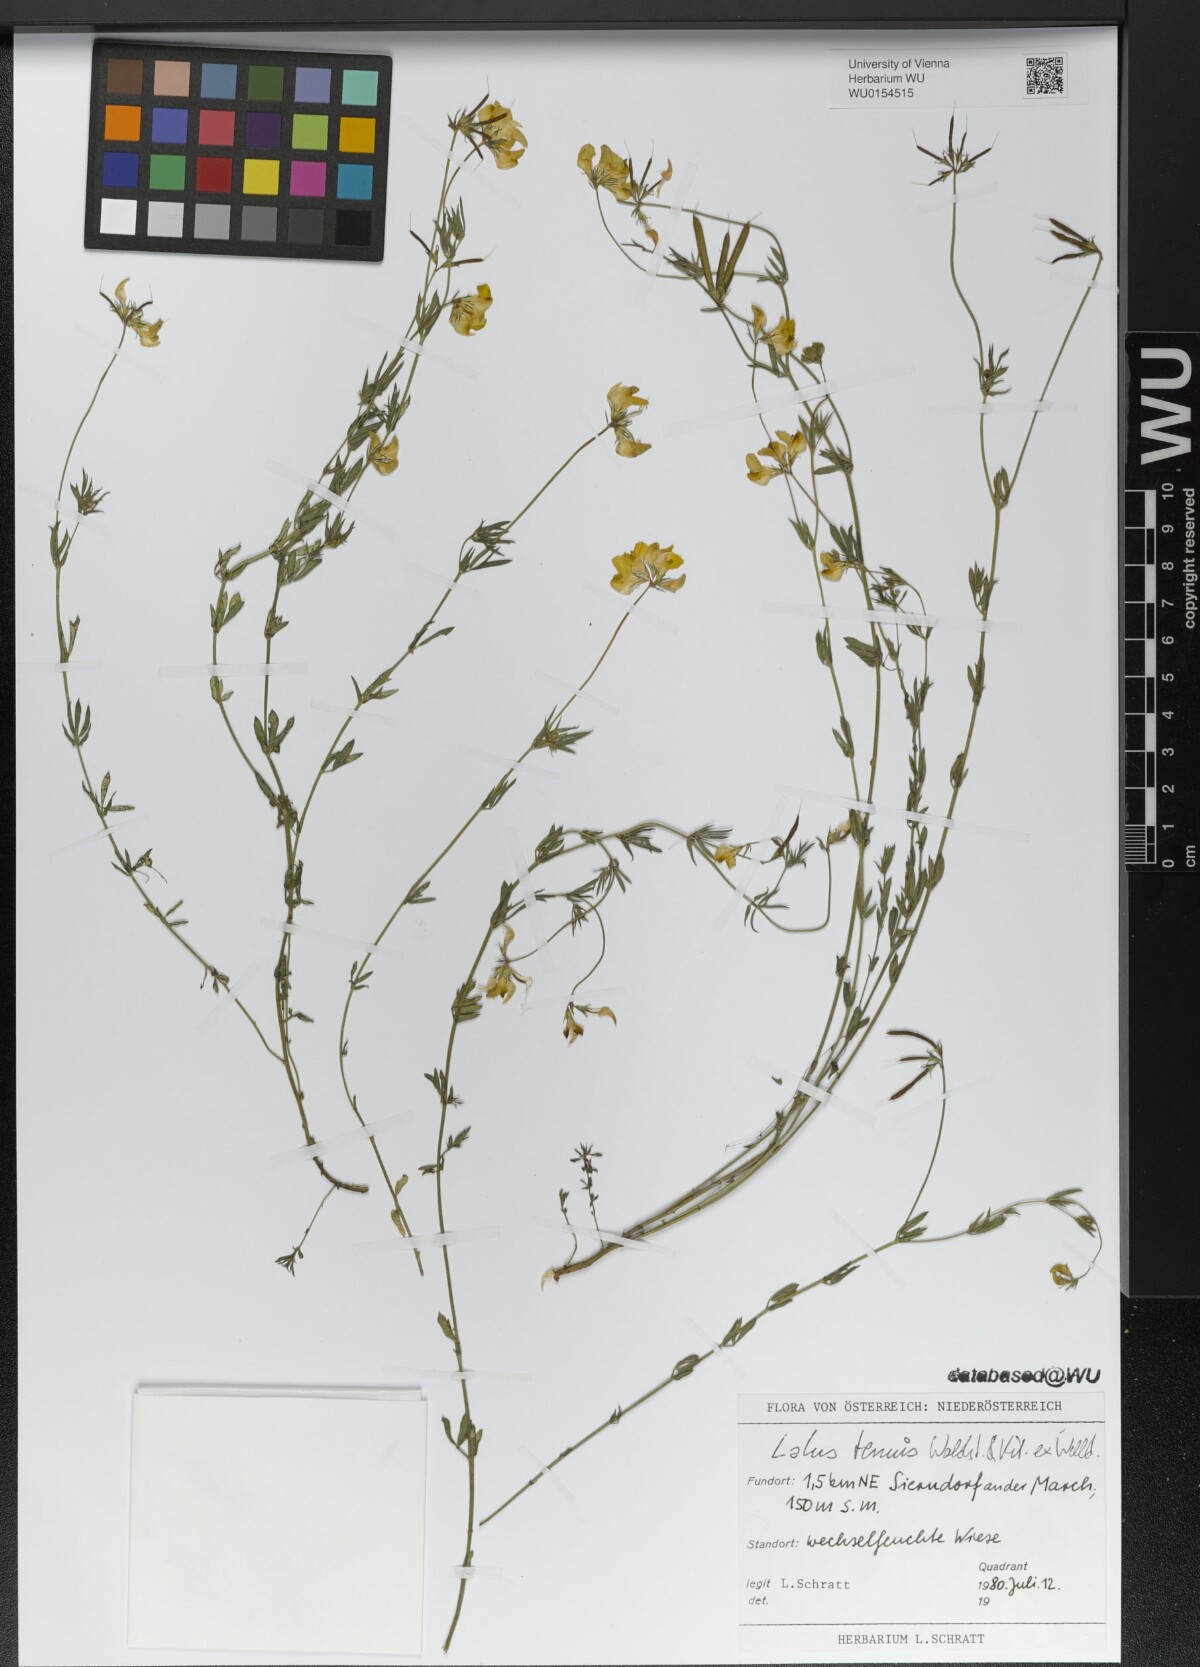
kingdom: Plantae
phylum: Tracheophyta
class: Magnoliopsida
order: Fabales
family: Fabaceae
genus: Lotus
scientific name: Lotus tenuis
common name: Narrow-leaved bird's-foot-trefoil
